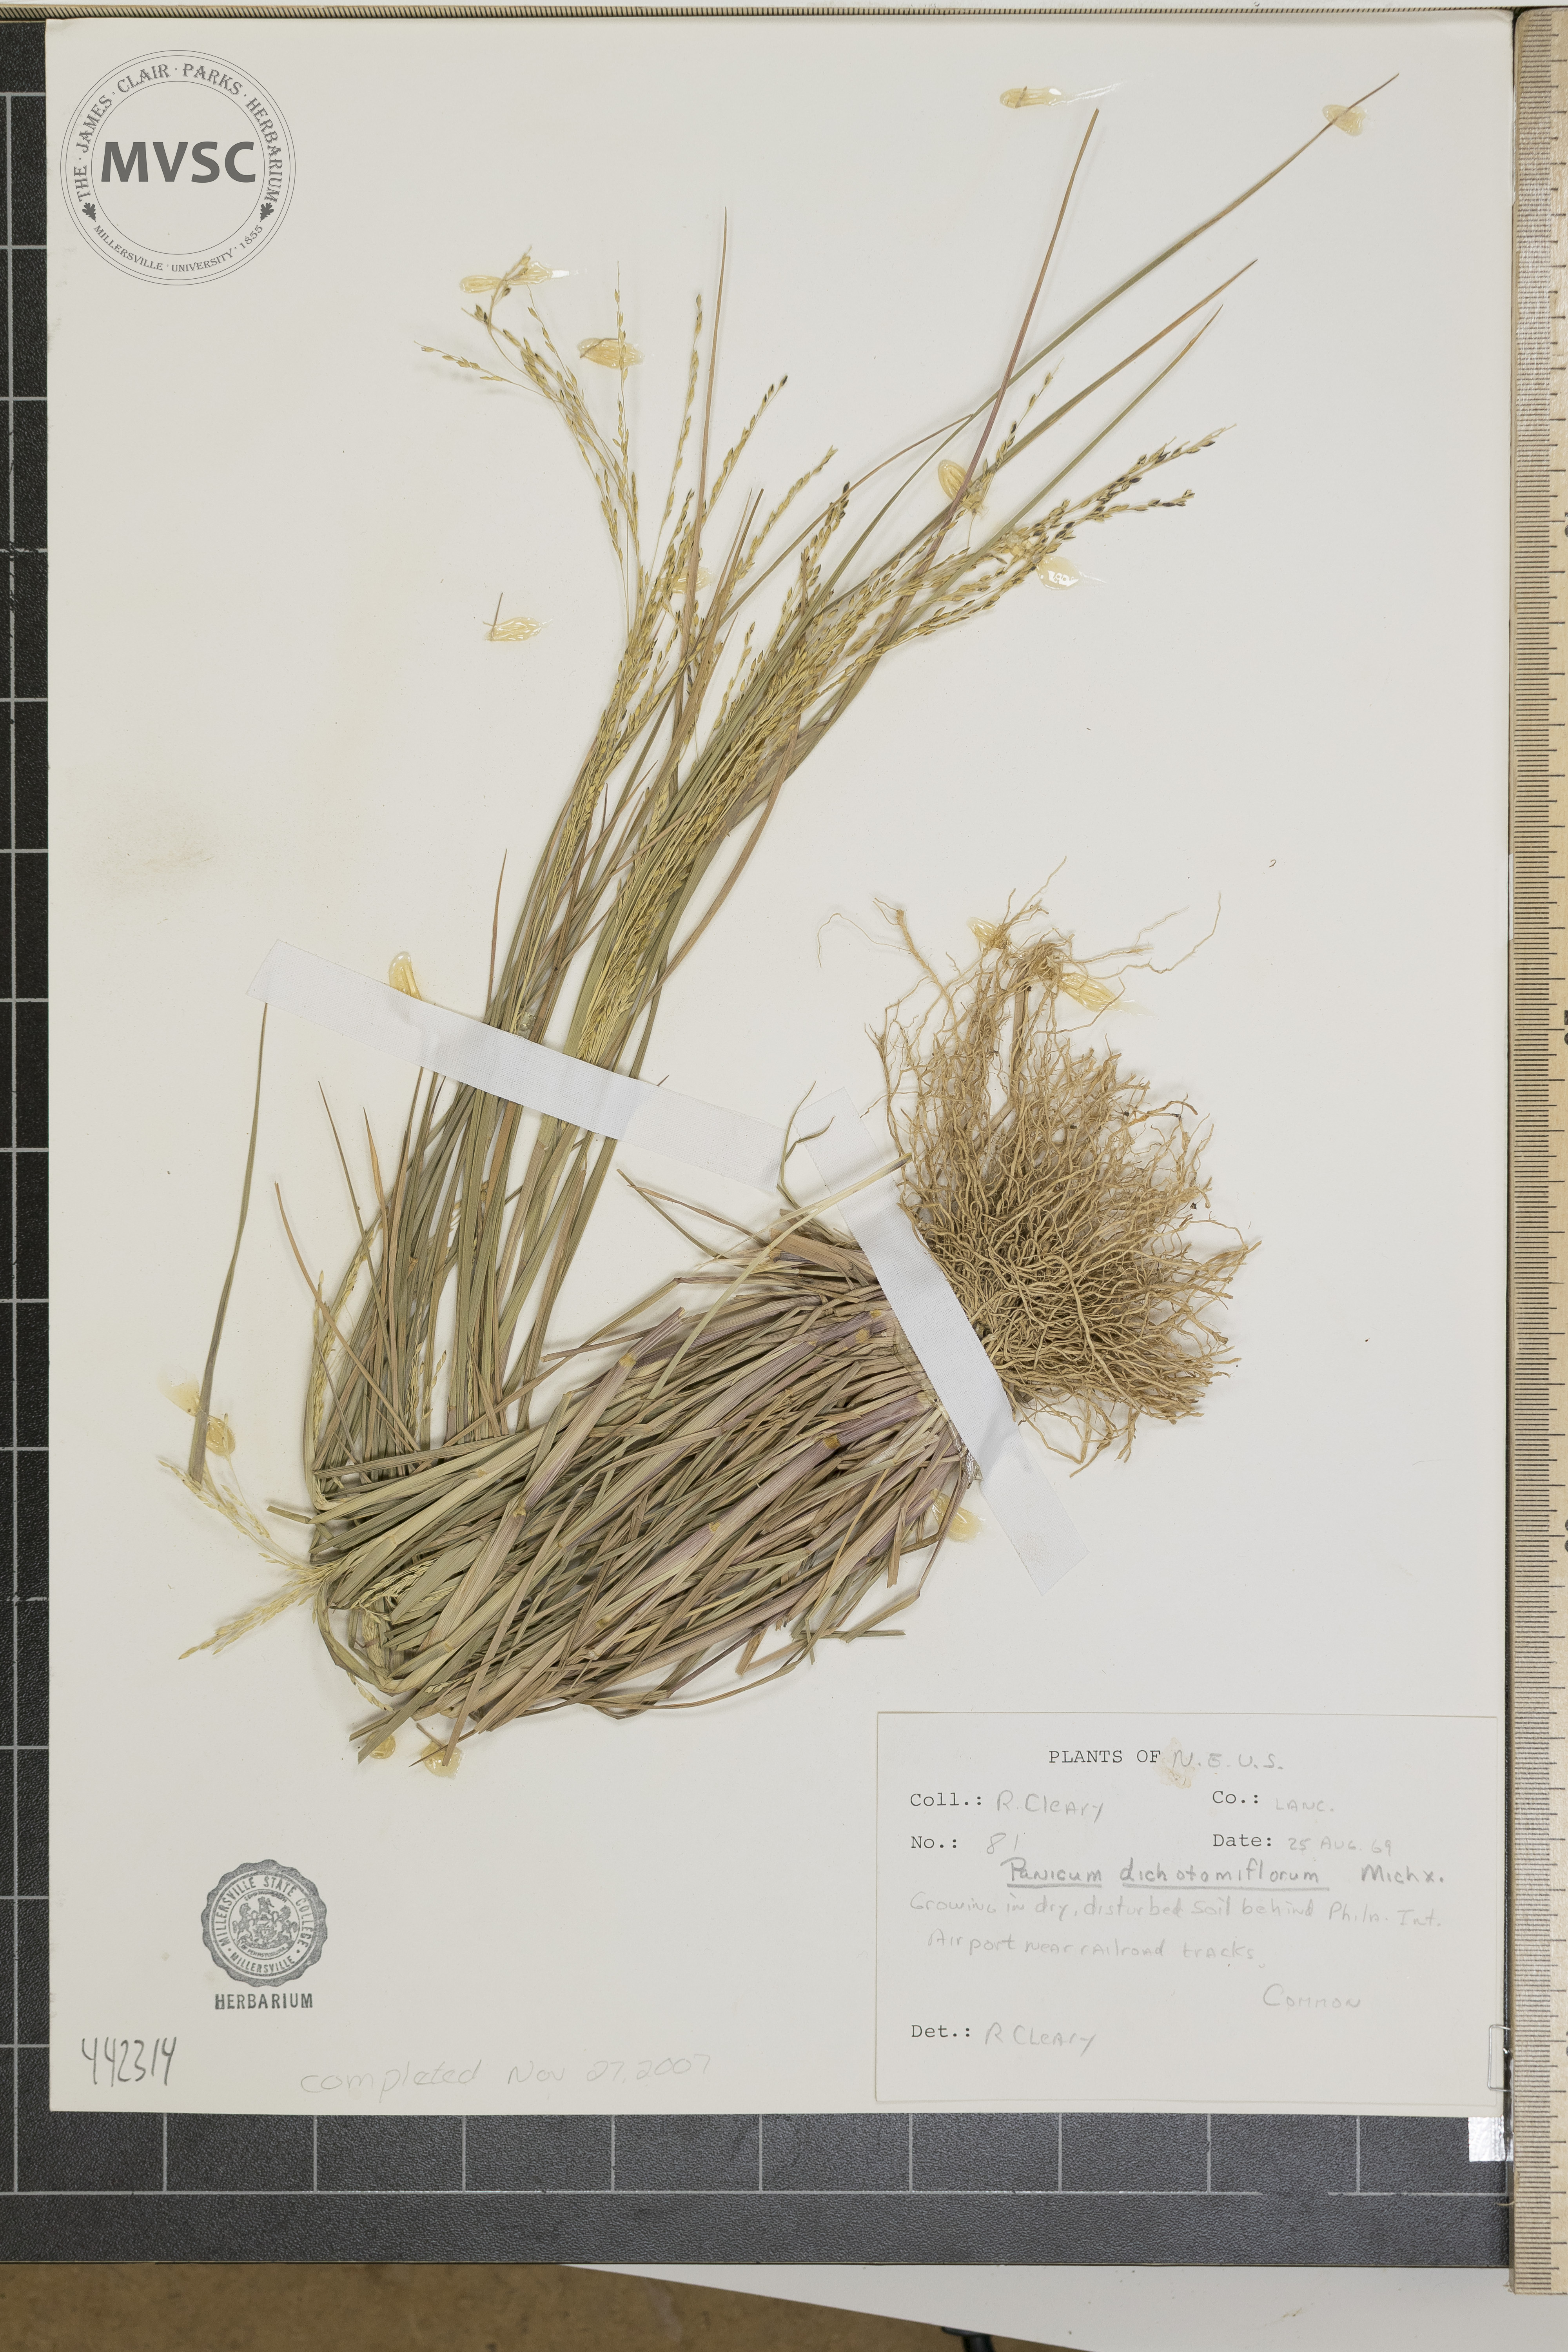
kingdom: Plantae
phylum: Tracheophyta
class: Liliopsida
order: Poales
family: Poaceae
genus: Panicum
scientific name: Panicum dichotomiflorum
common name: Autumn millet
